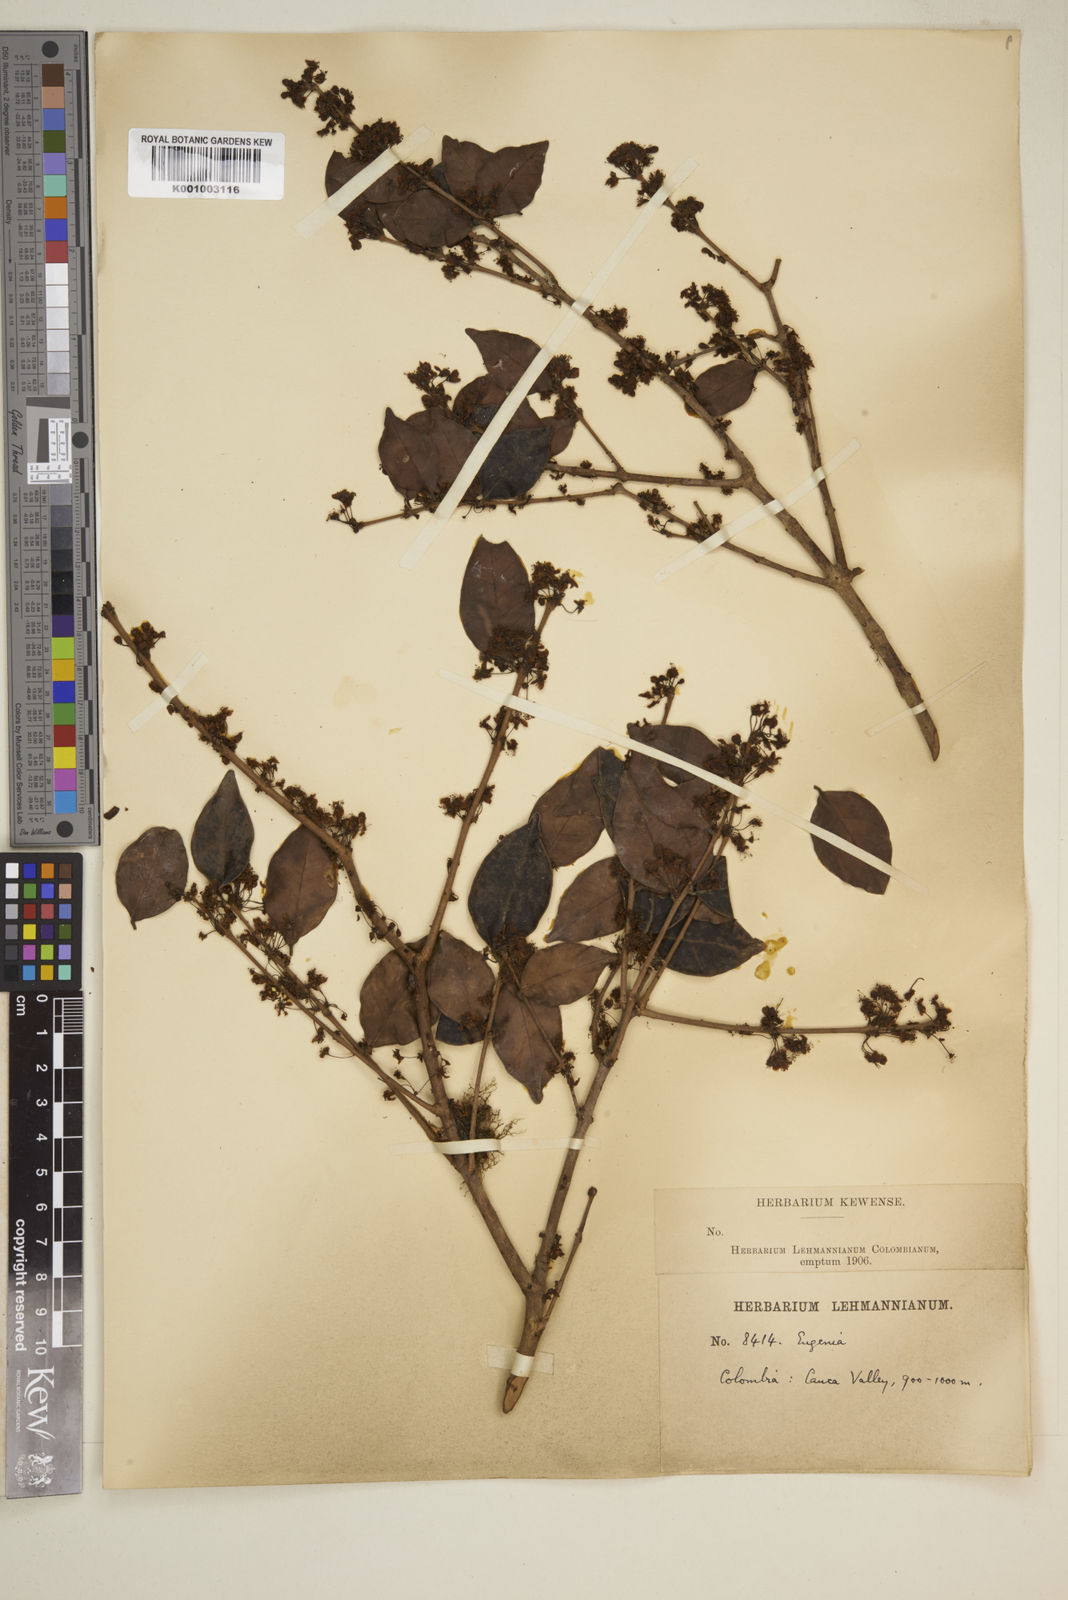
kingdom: Plantae
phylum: Tracheophyta
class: Magnoliopsida
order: Myrtales
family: Myrtaceae
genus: Eugenia
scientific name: Eugenia
